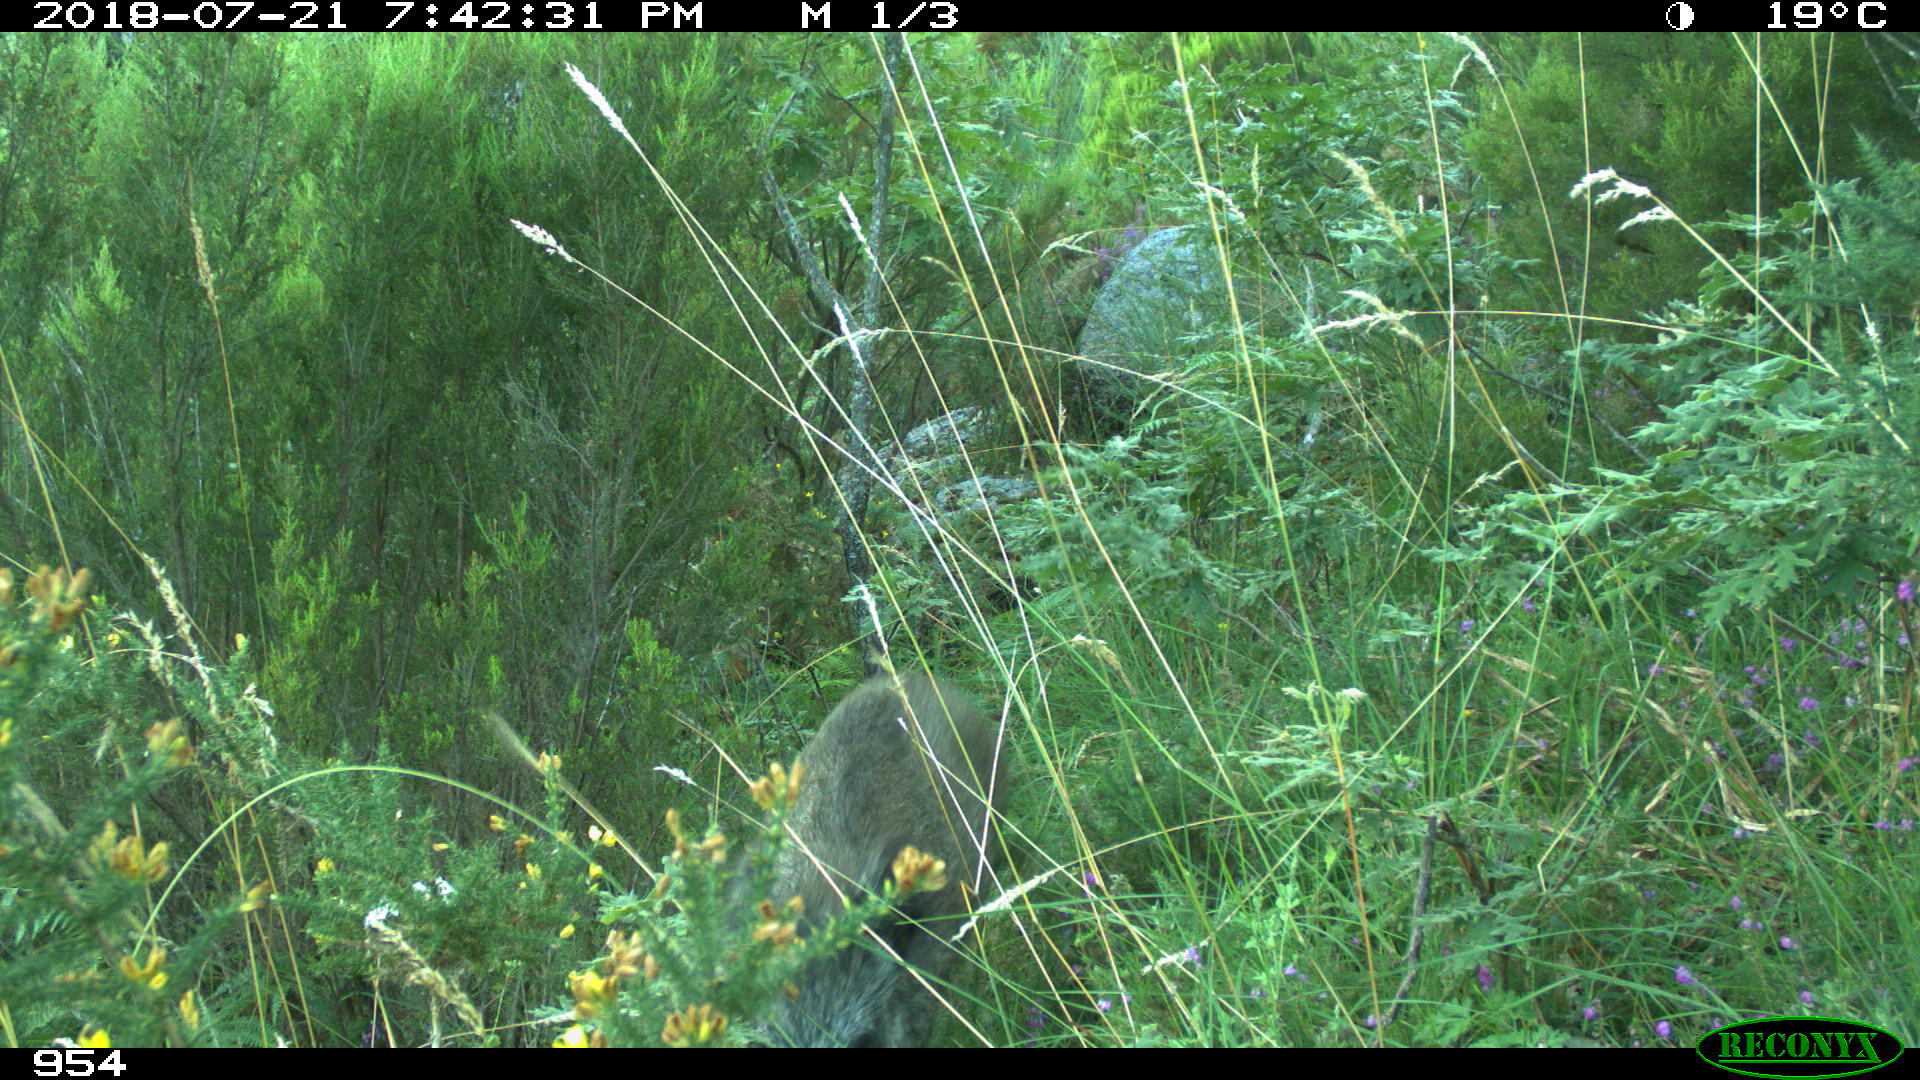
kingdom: Animalia
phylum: Chordata
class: Mammalia
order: Artiodactyla
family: Suidae
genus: Sus
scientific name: Sus scrofa
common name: Wild boar
